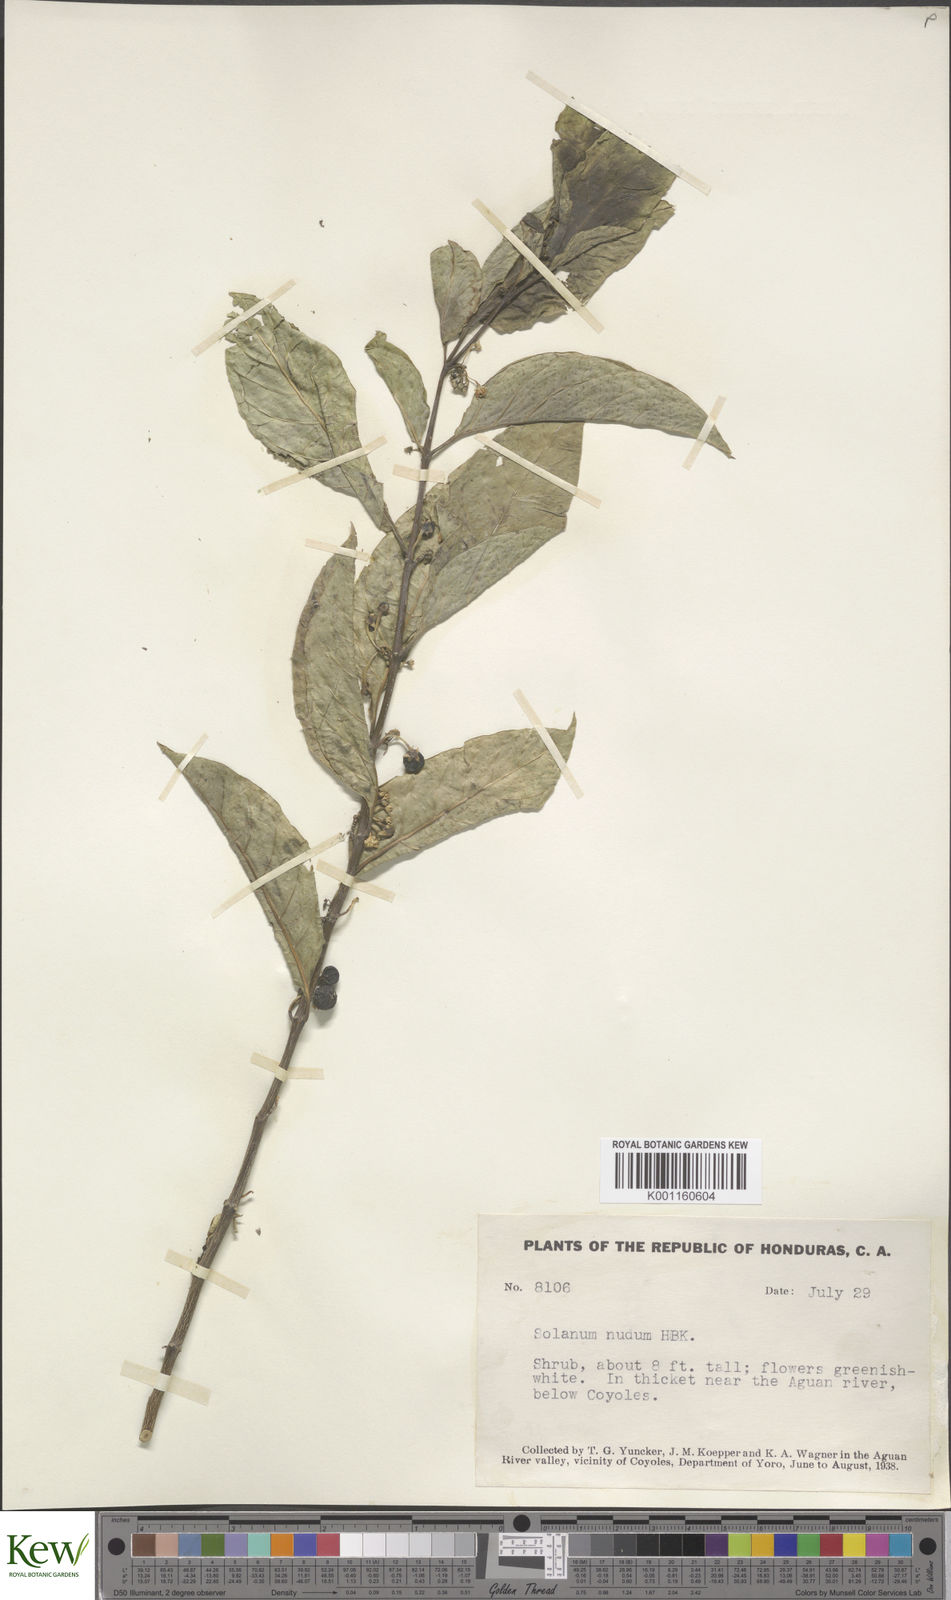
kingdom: Plantae
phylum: Tracheophyta
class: Magnoliopsida
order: Solanales
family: Solanaceae
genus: Solanum
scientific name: Solanum nudum
